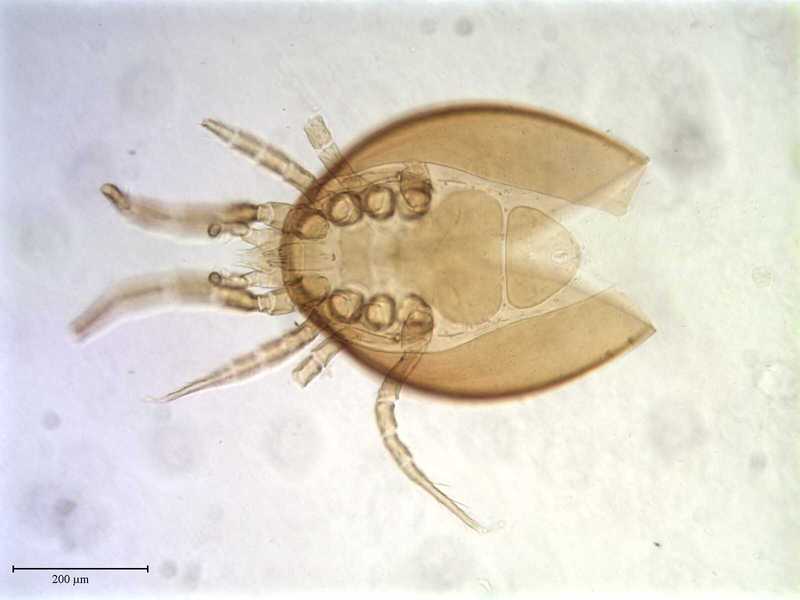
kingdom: Animalia
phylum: Arthropoda
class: Arachnida
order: Mesostigmata
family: Ameroseiidae
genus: Neocypholaelaps
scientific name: Neocypholaelaps
